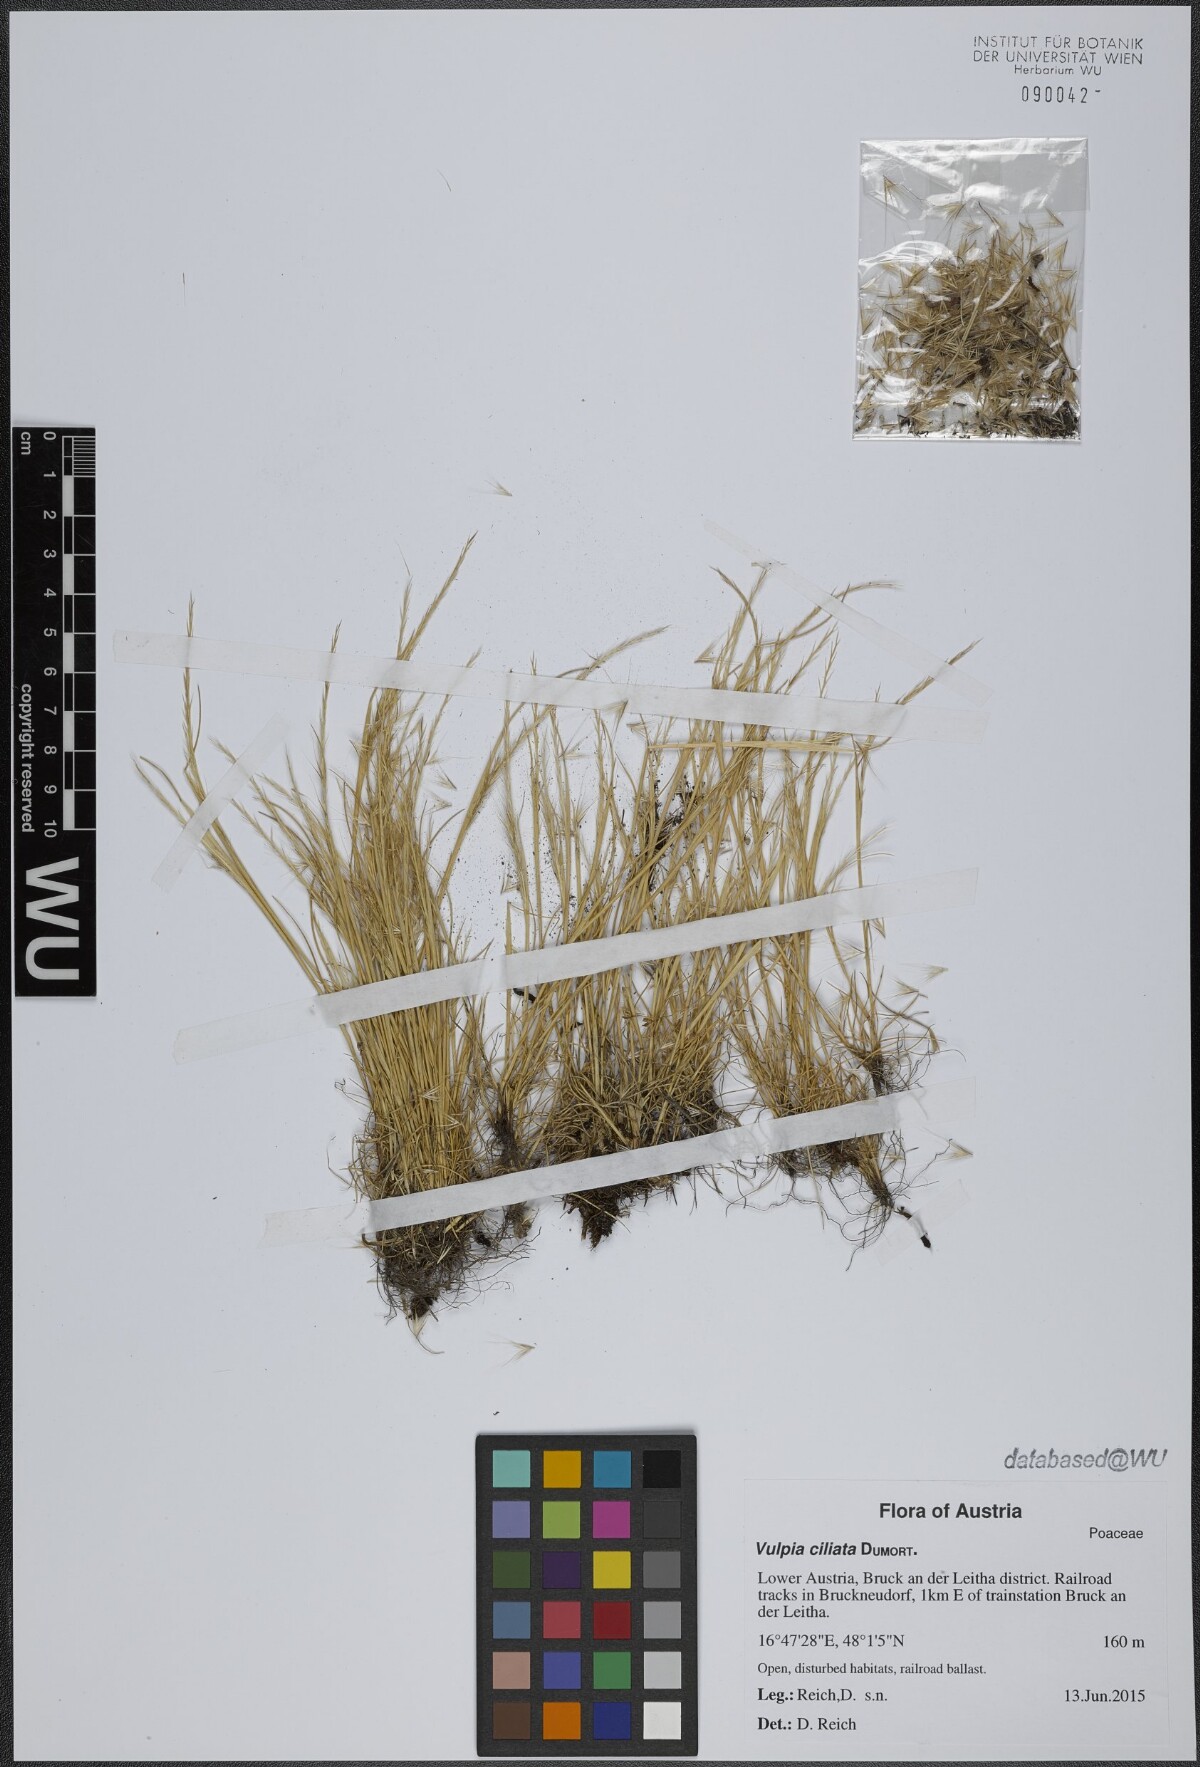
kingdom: Plantae
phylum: Tracheophyta
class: Liliopsida
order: Poales
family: Poaceae
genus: Festuca
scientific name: Festuca ambigua
